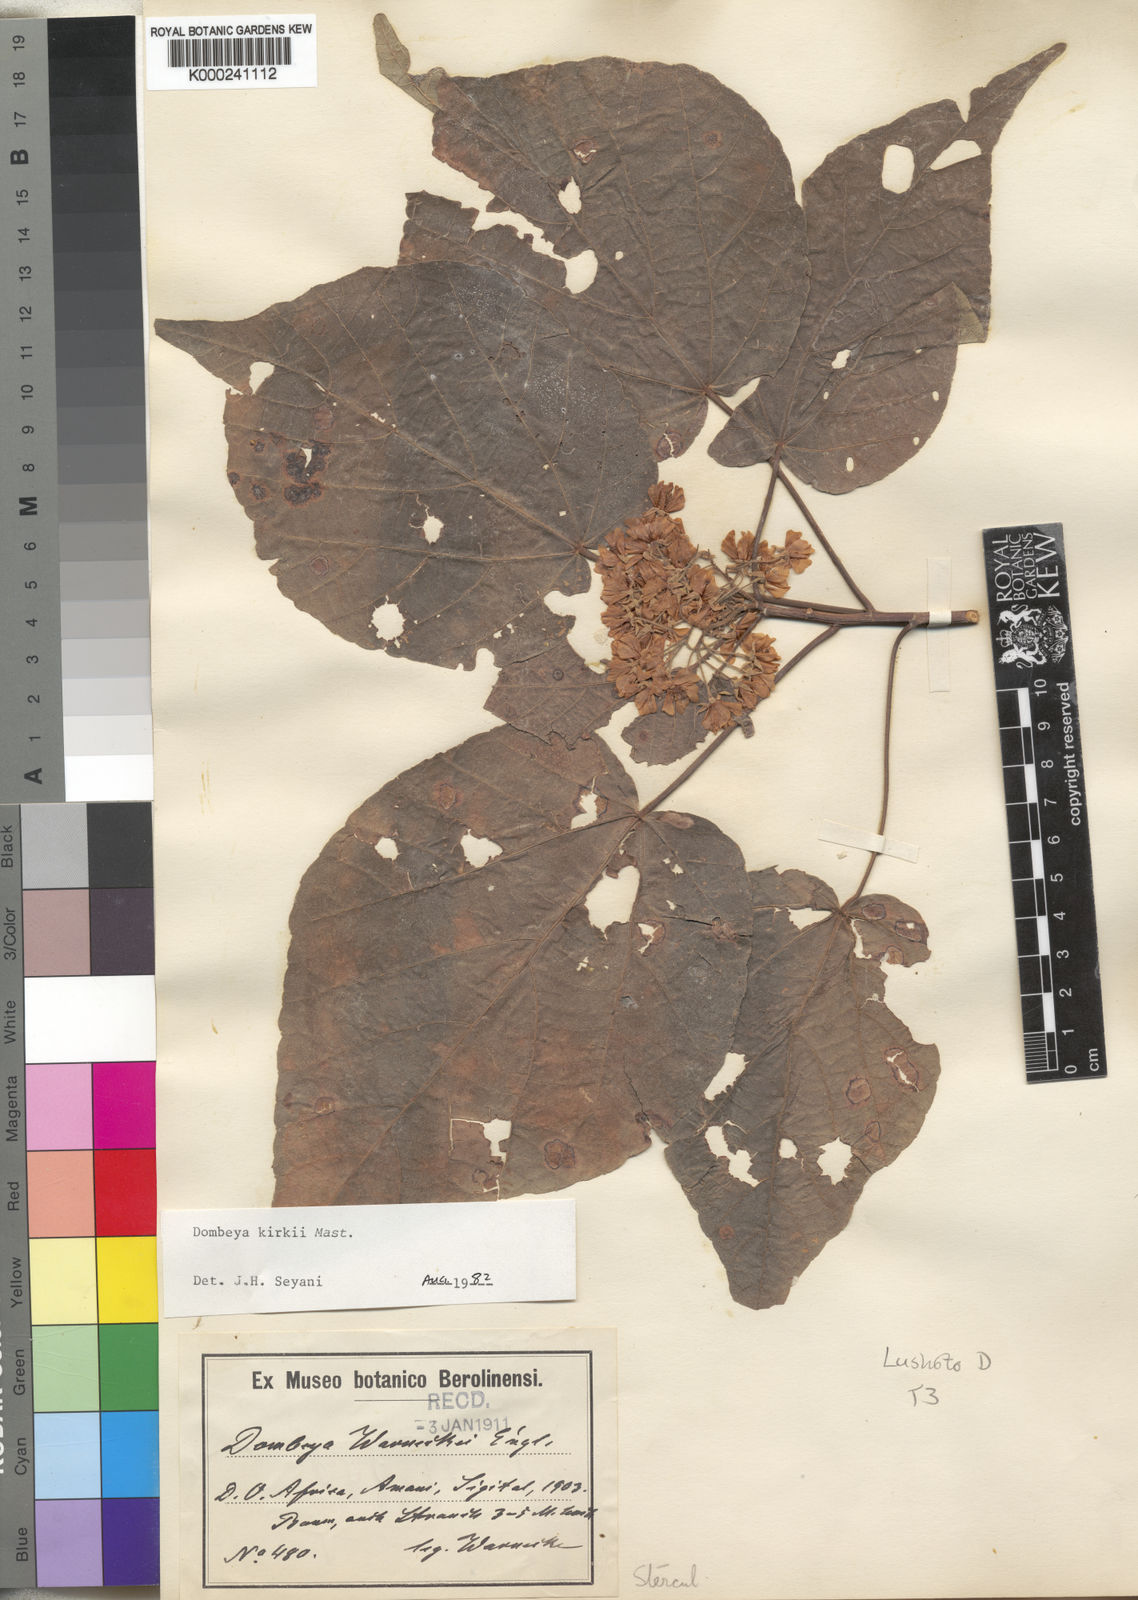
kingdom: Plantae
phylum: Tracheophyta
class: Magnoliopsida
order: Malvales
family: Malvaceae
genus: Dombeya
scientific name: Dombeya kirkii
